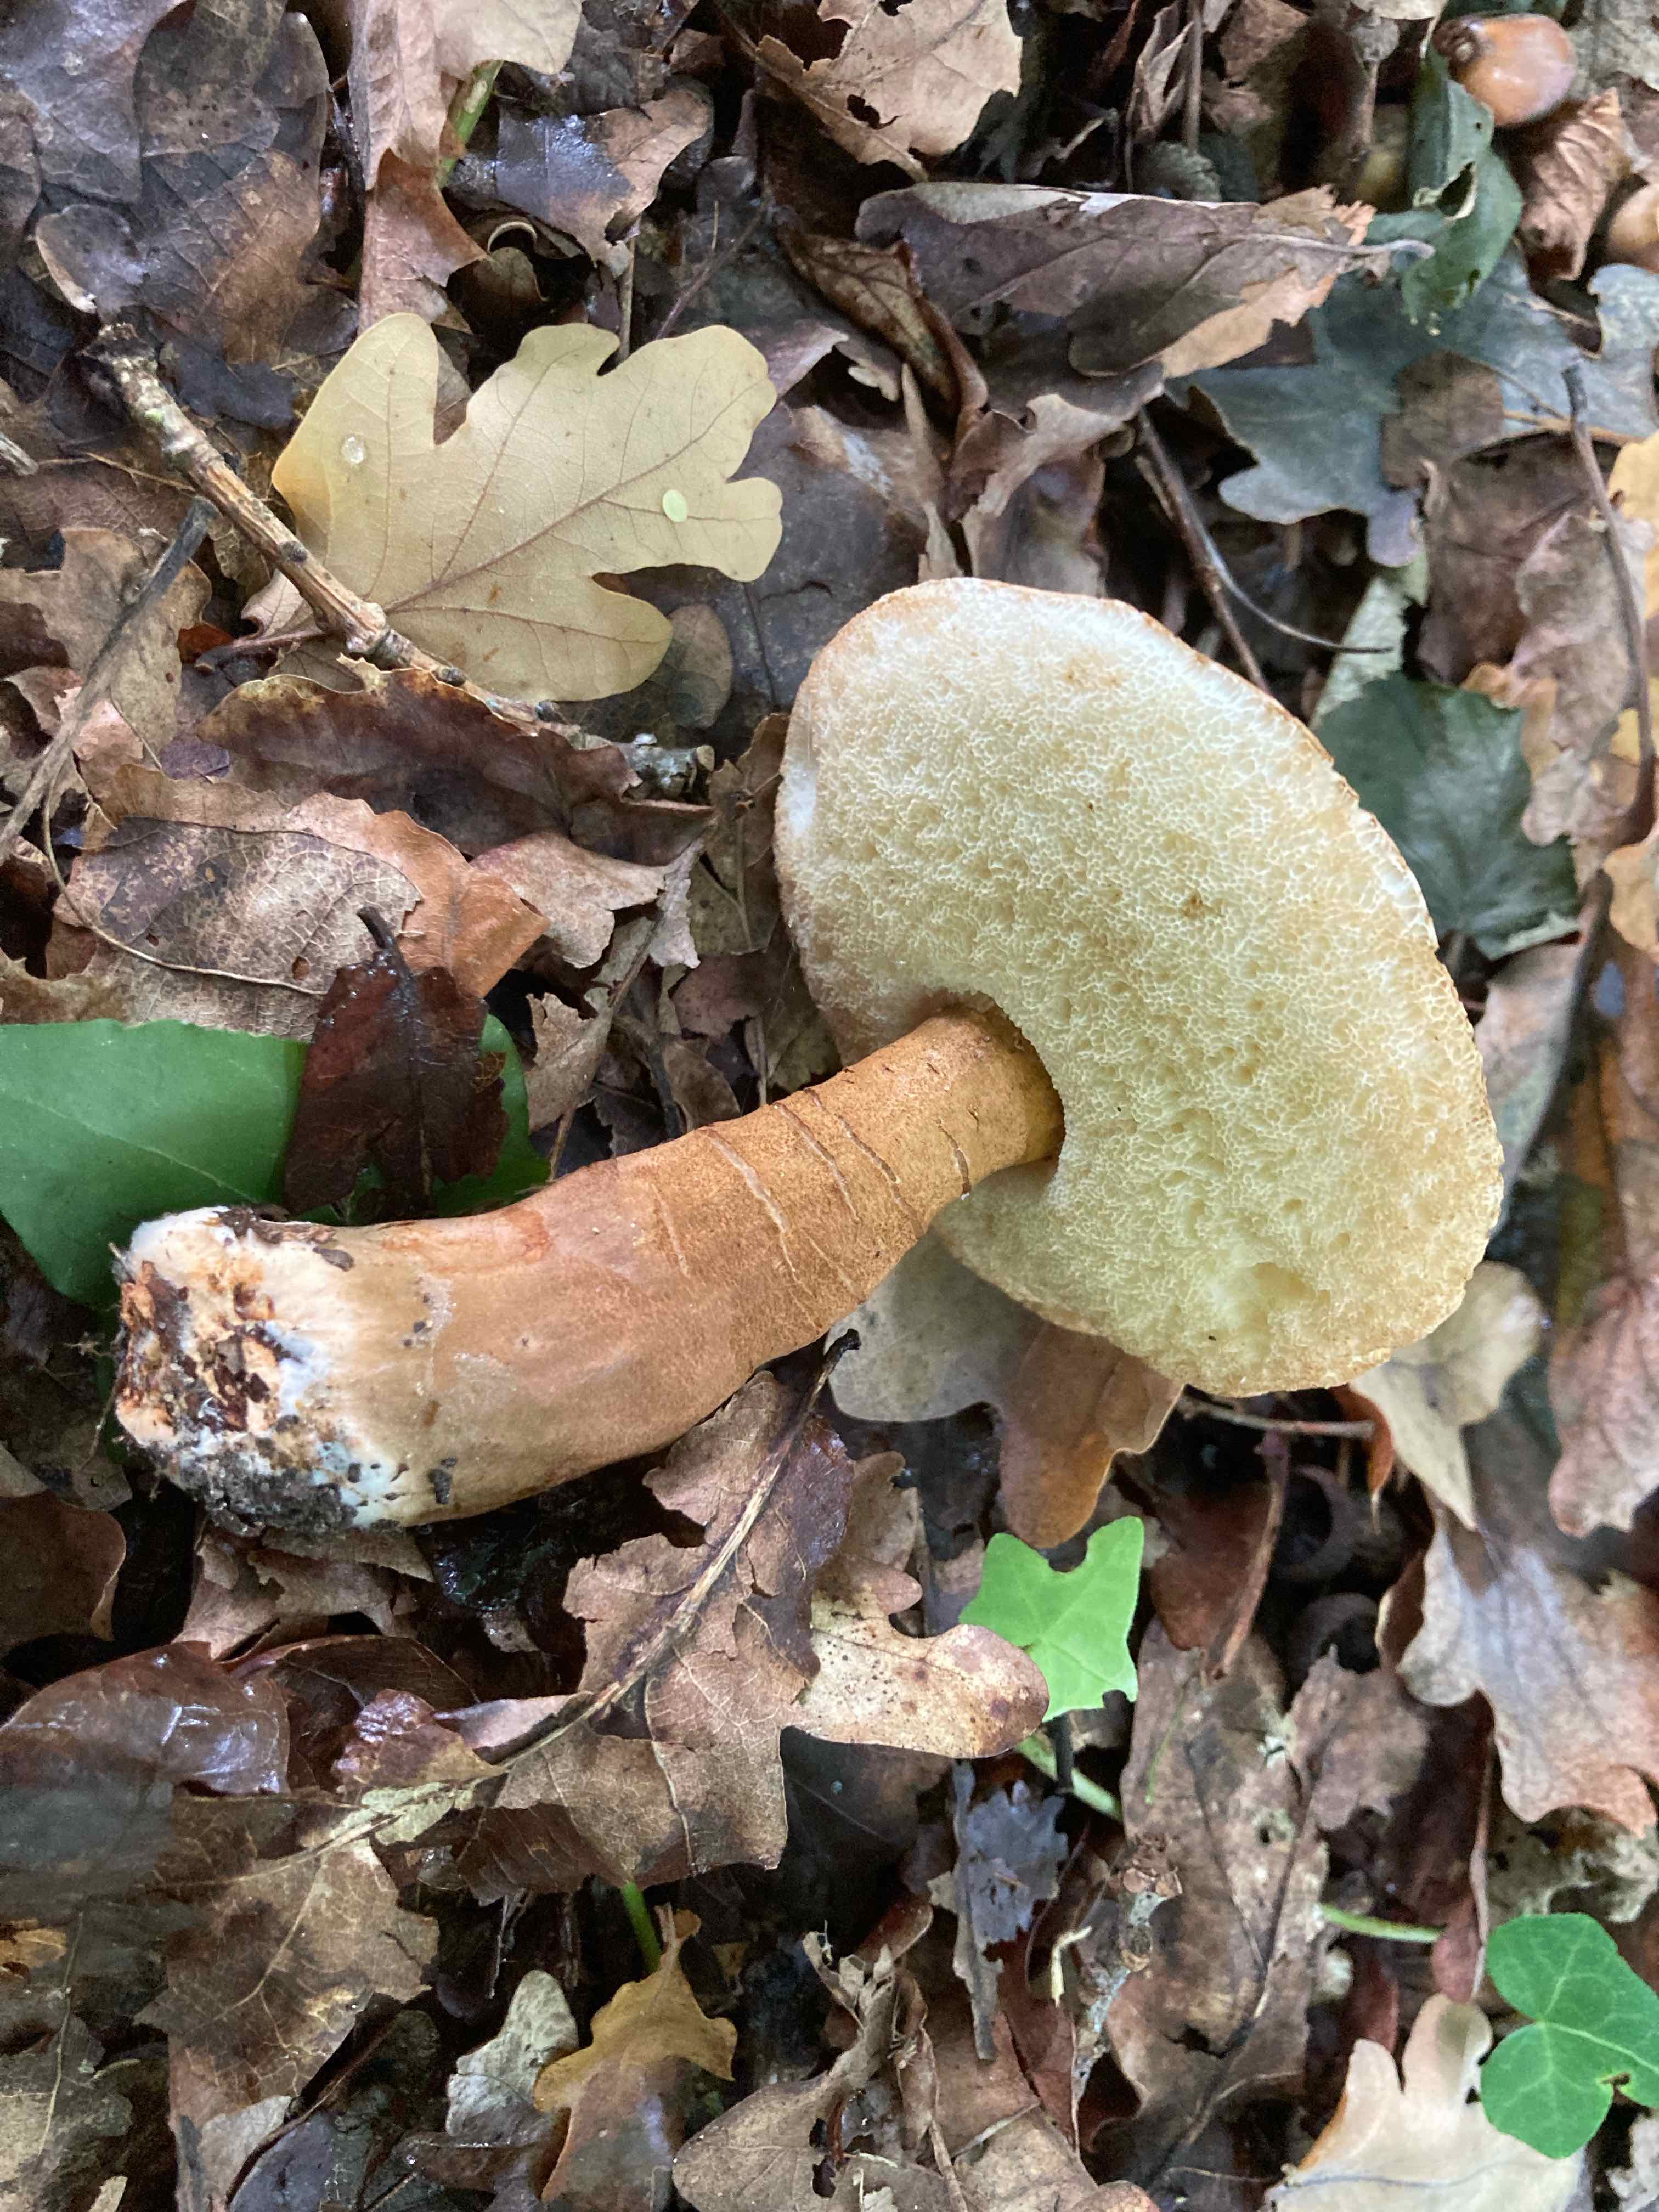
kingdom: Fungi
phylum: Basidiomycota
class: Agaricomycetes
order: Boletales
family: Gyroporaceae
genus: Gyroporus
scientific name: Gyroporus castaneus
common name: kastanie-kammerrørhat
